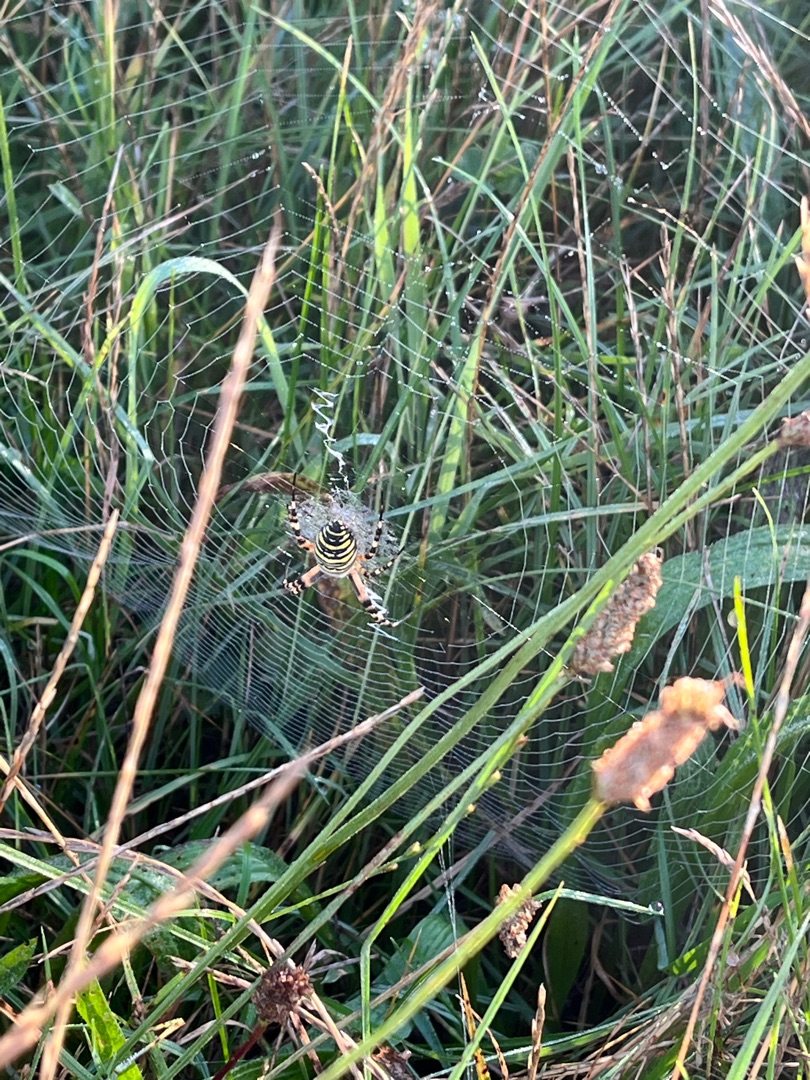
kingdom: Animalia
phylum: Arthropoda
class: Arachnida
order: Araneae
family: Araneidae
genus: Argiope
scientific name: Argiope bruennichi
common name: Hvepseedderkop
